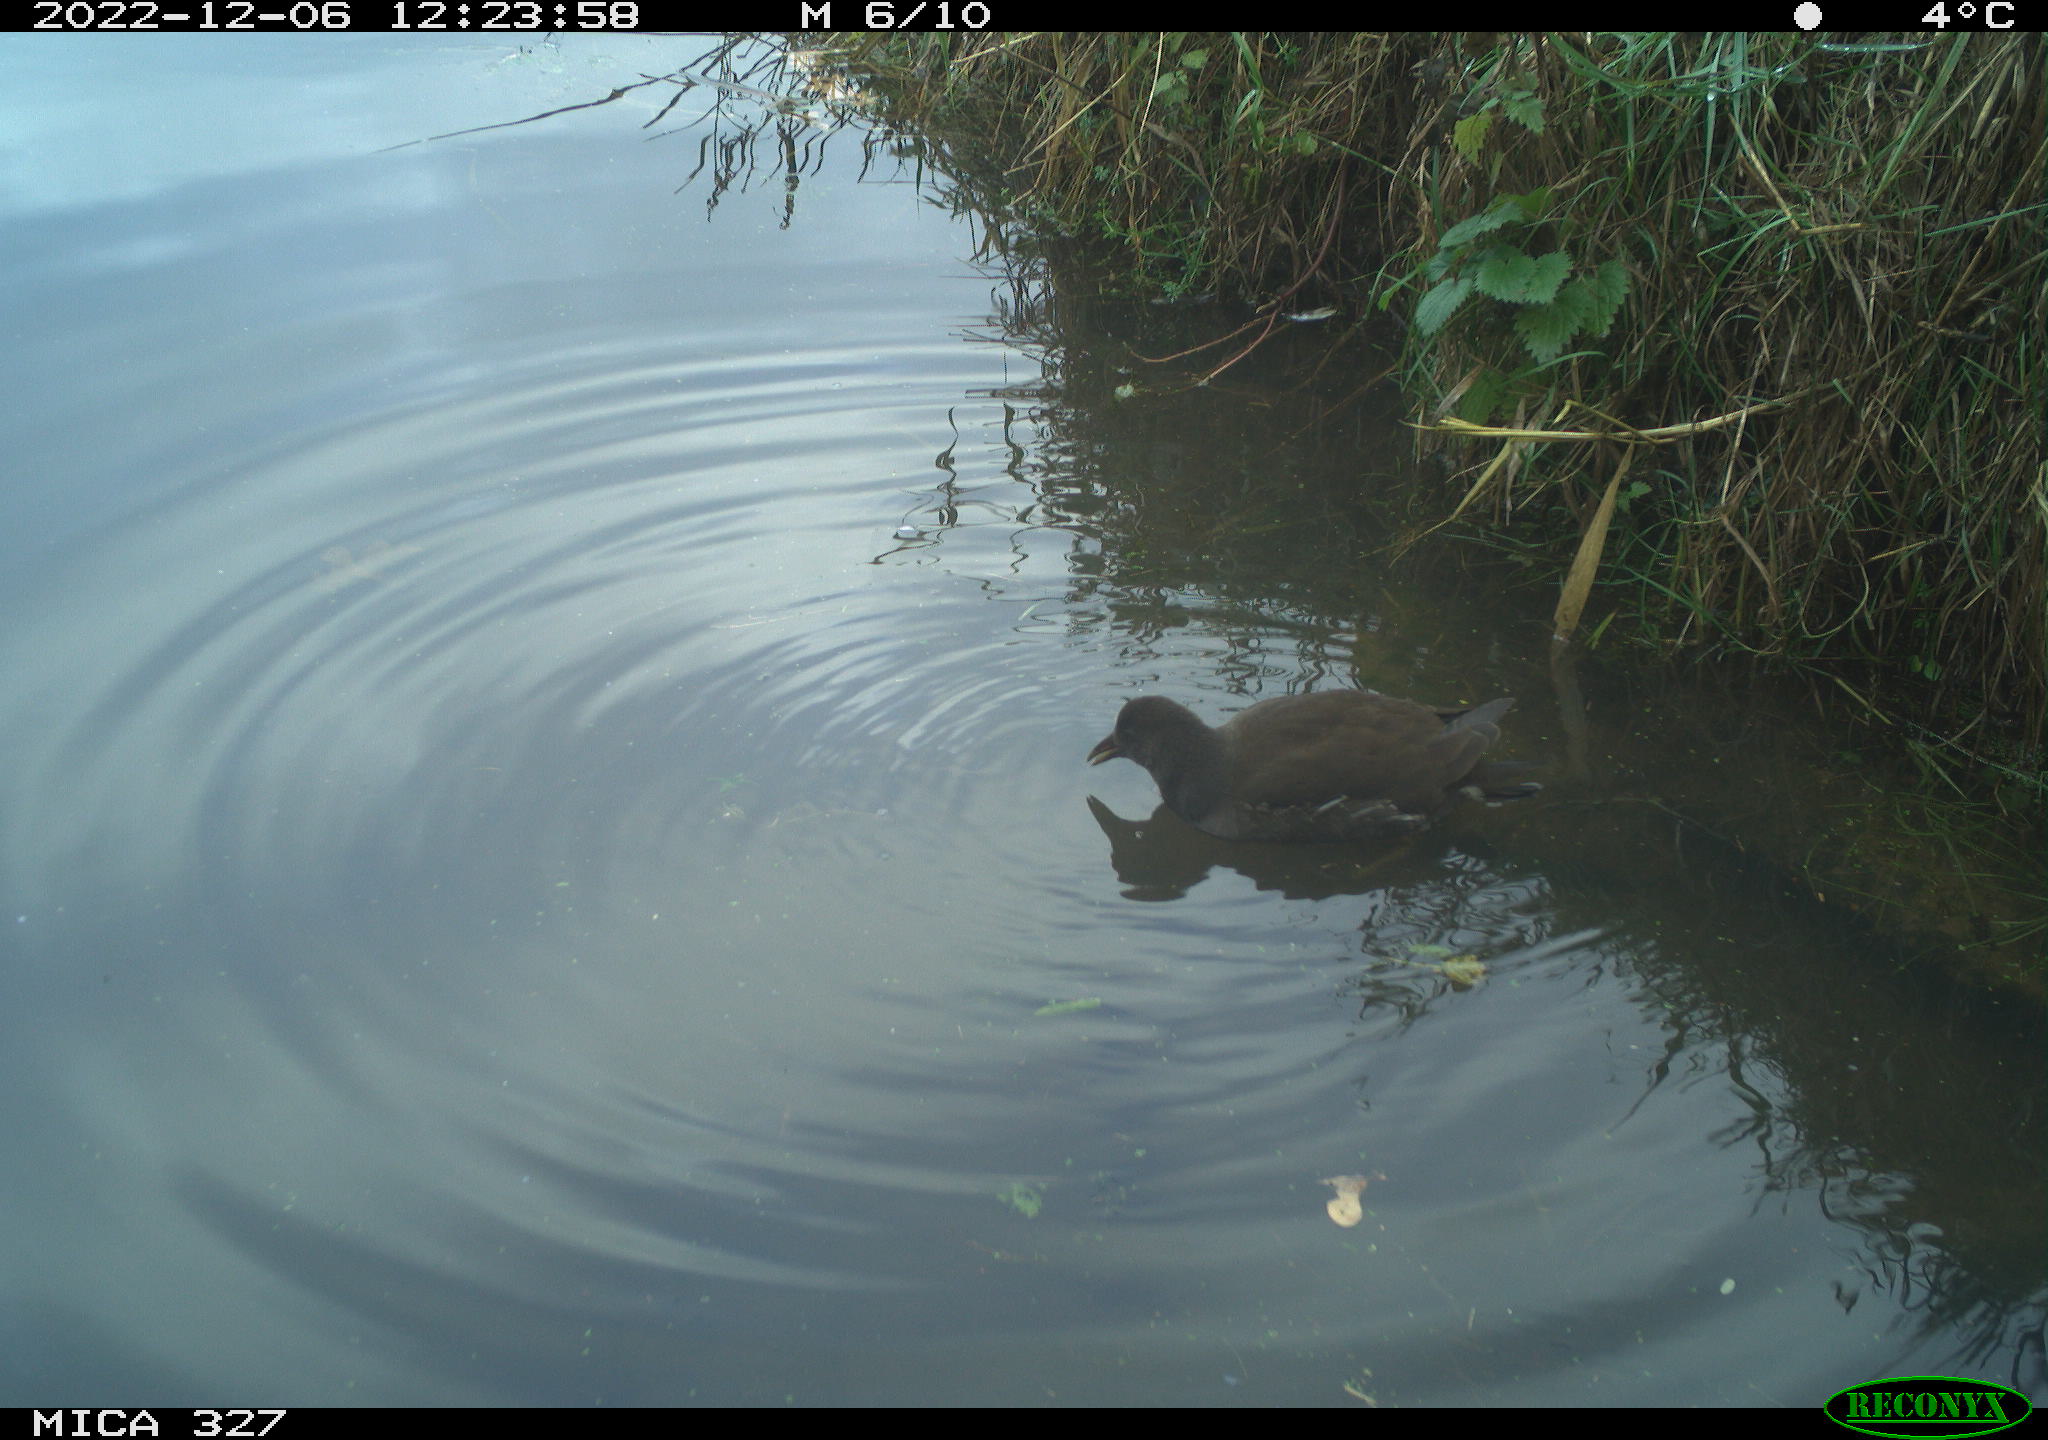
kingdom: Animalia
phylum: Chordata
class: Aves
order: Gruiformes
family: Rallidae
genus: Gallinula
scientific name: Gallinula chloropus
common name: Common moorhen
